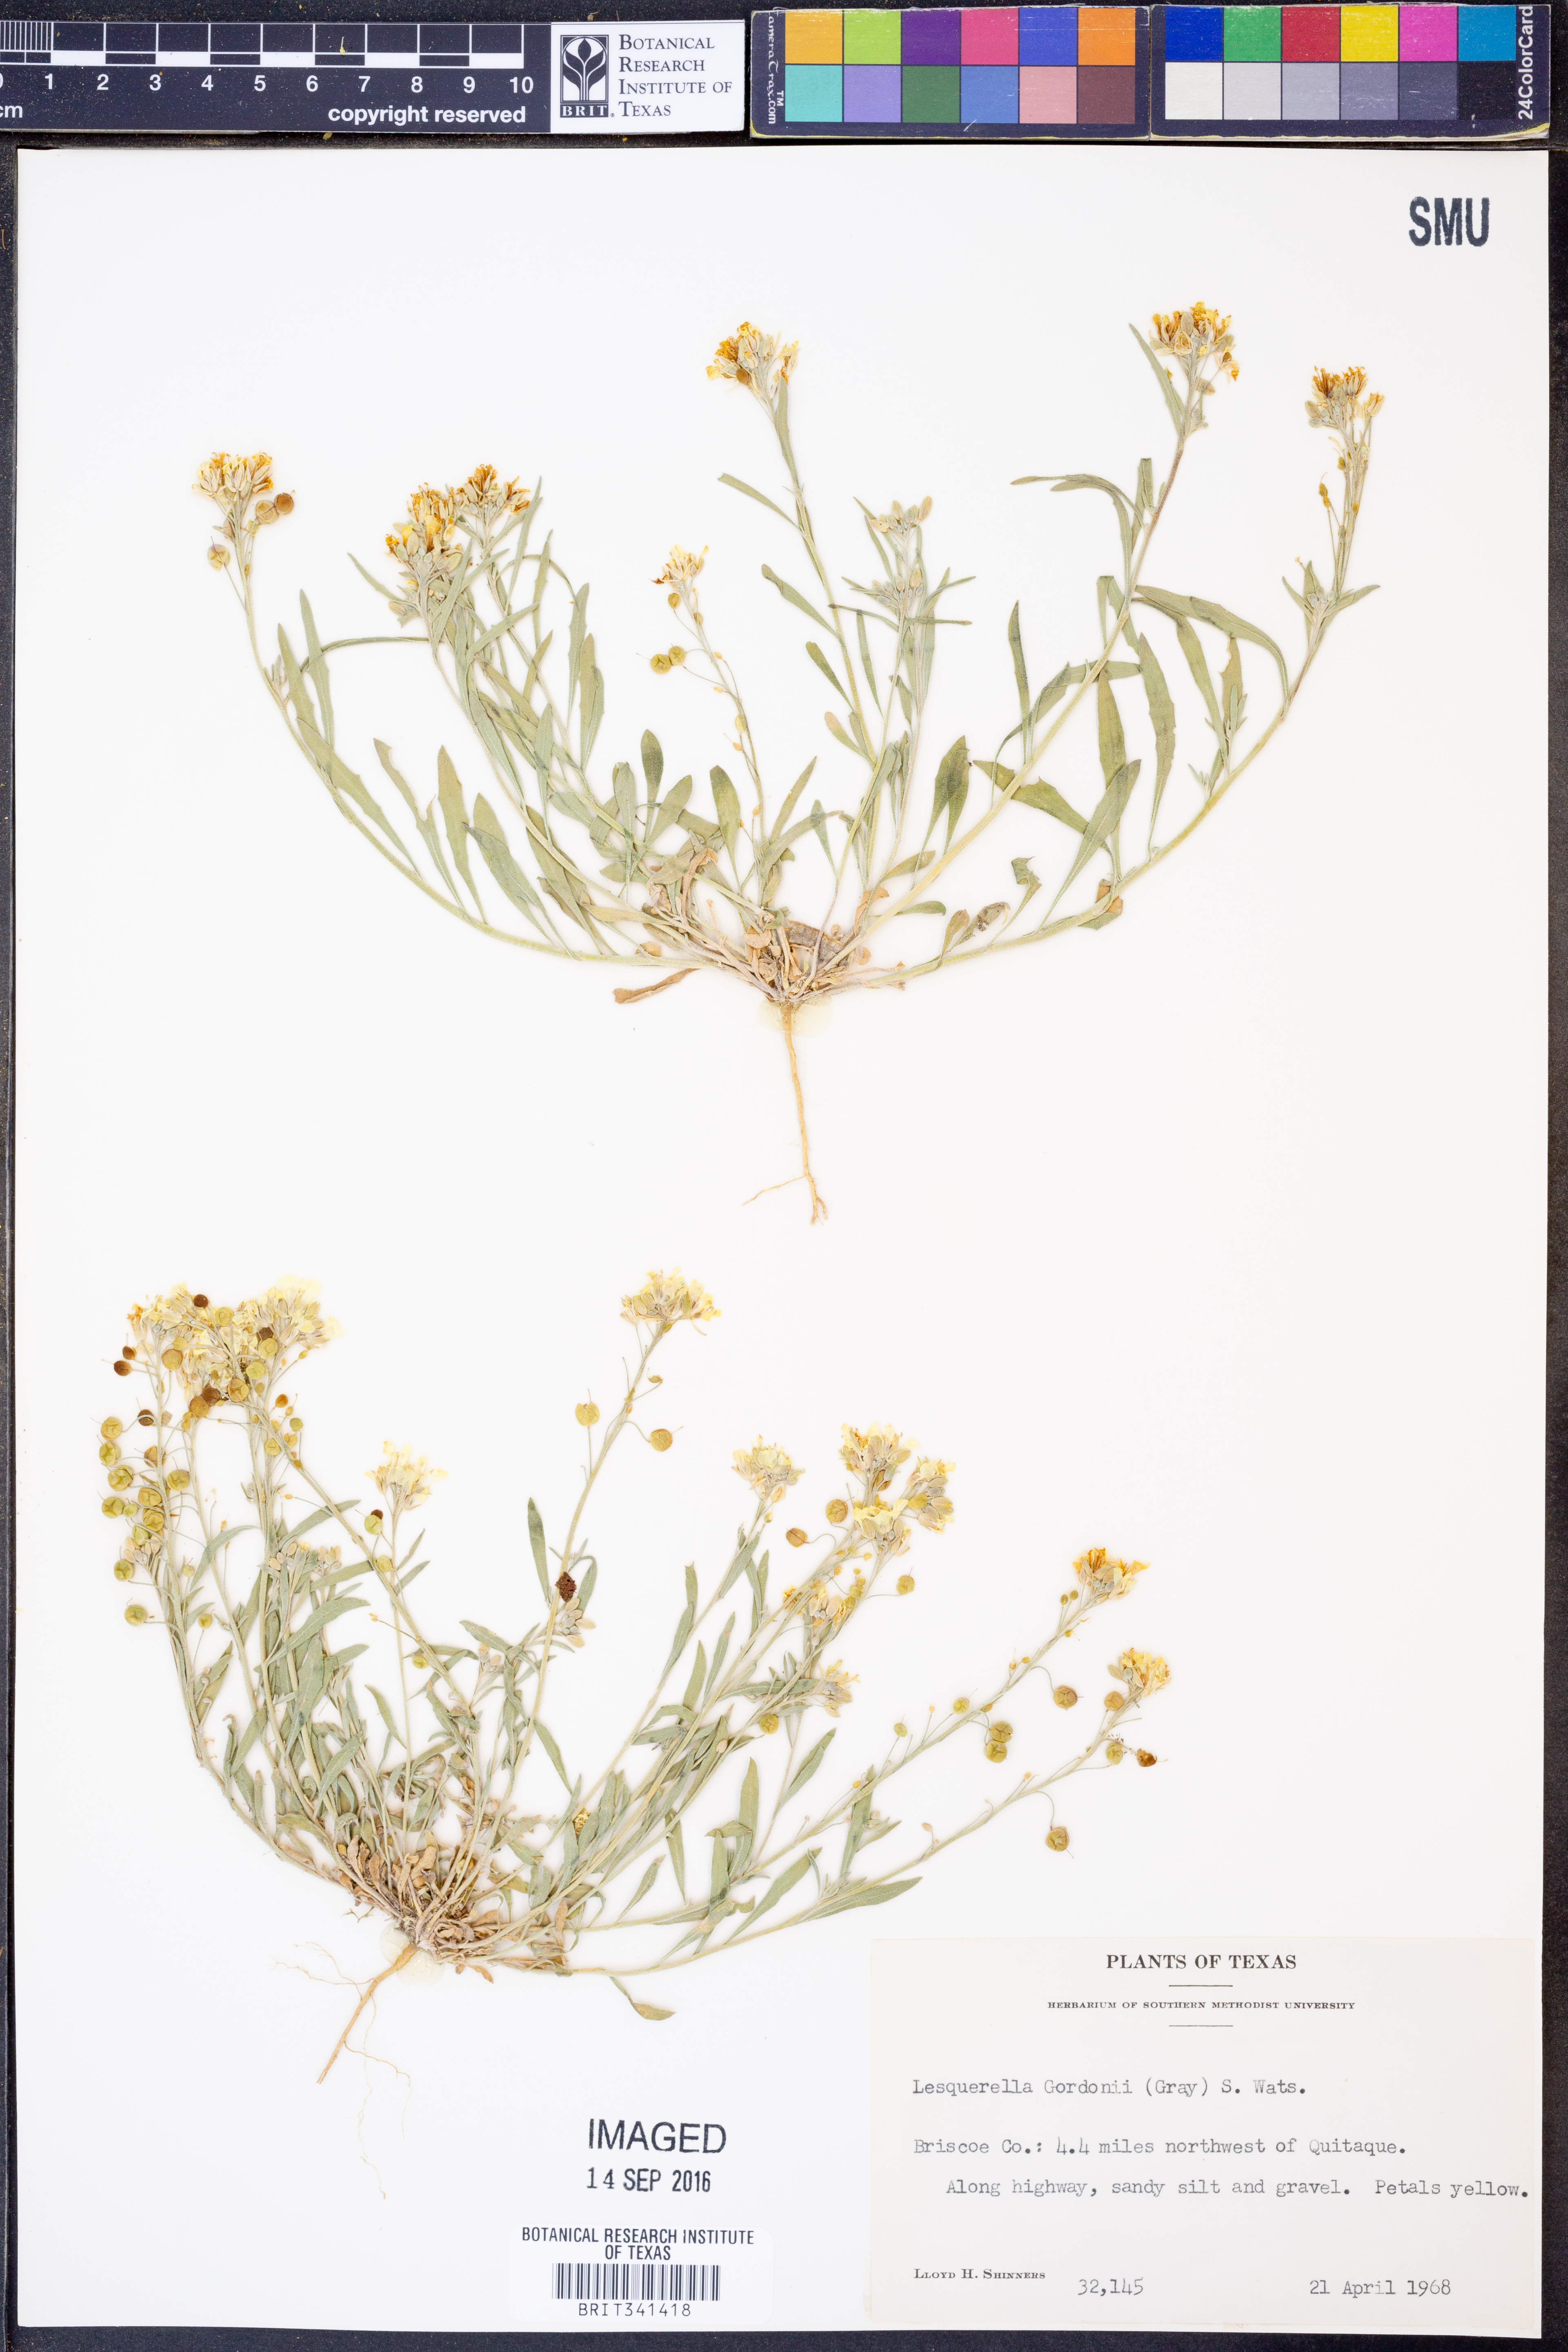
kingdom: Plantae
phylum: Tracheophyta
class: Magnoliopsida
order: Brassicales
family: Brassicaceae
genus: Physaria
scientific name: Physaria gordonii
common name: Gordon's bladderpod
